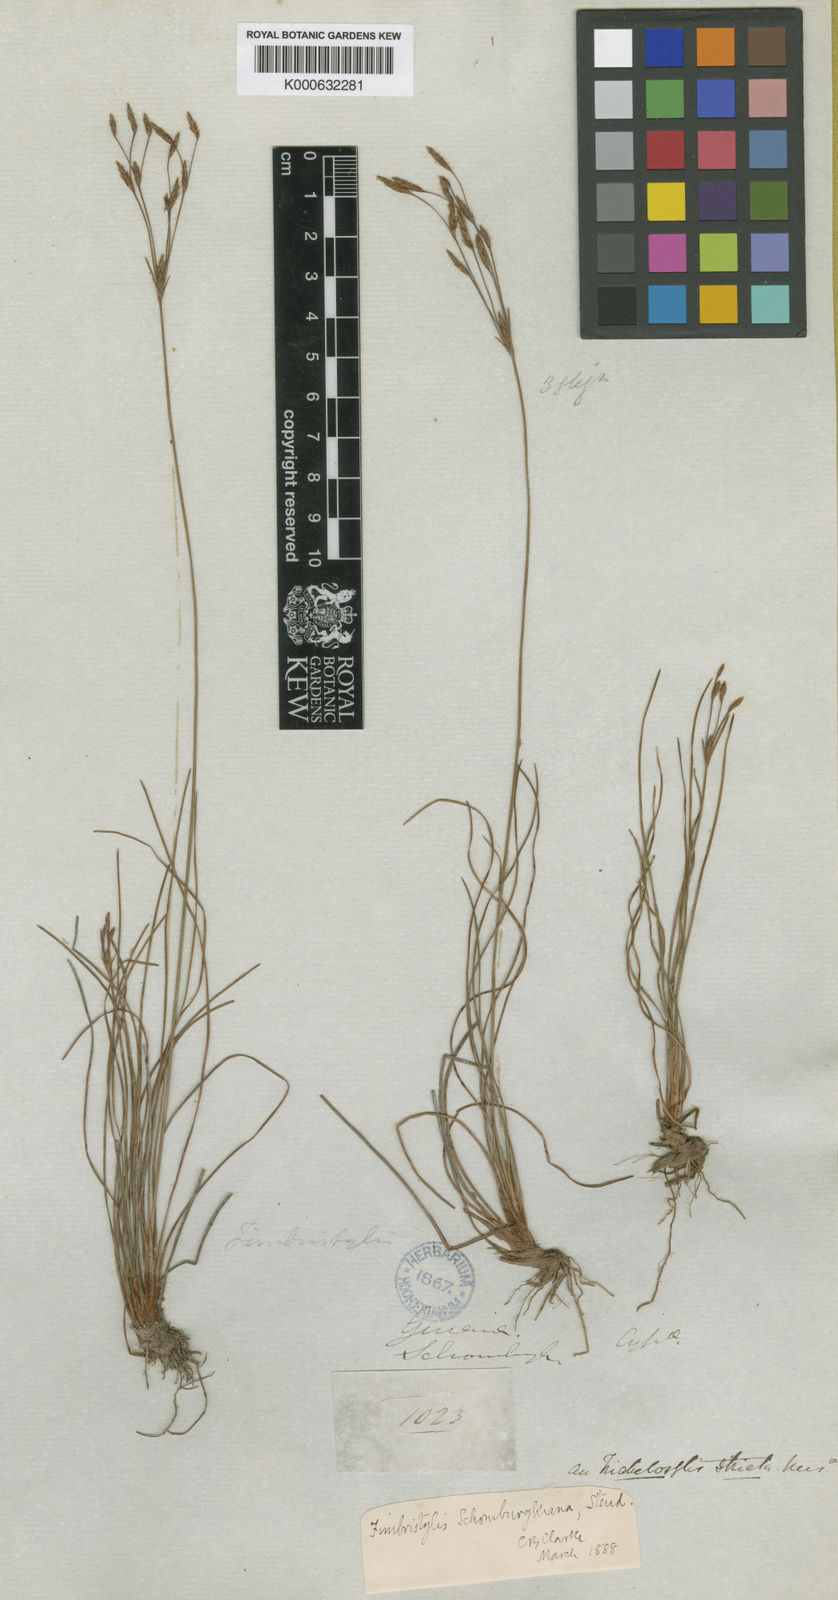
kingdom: Plantae
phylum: Tracheophyta
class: Liliopsida
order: Poales
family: Cyperaceae
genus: Bulbostylis
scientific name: Bulbostylis schomburgkiana
